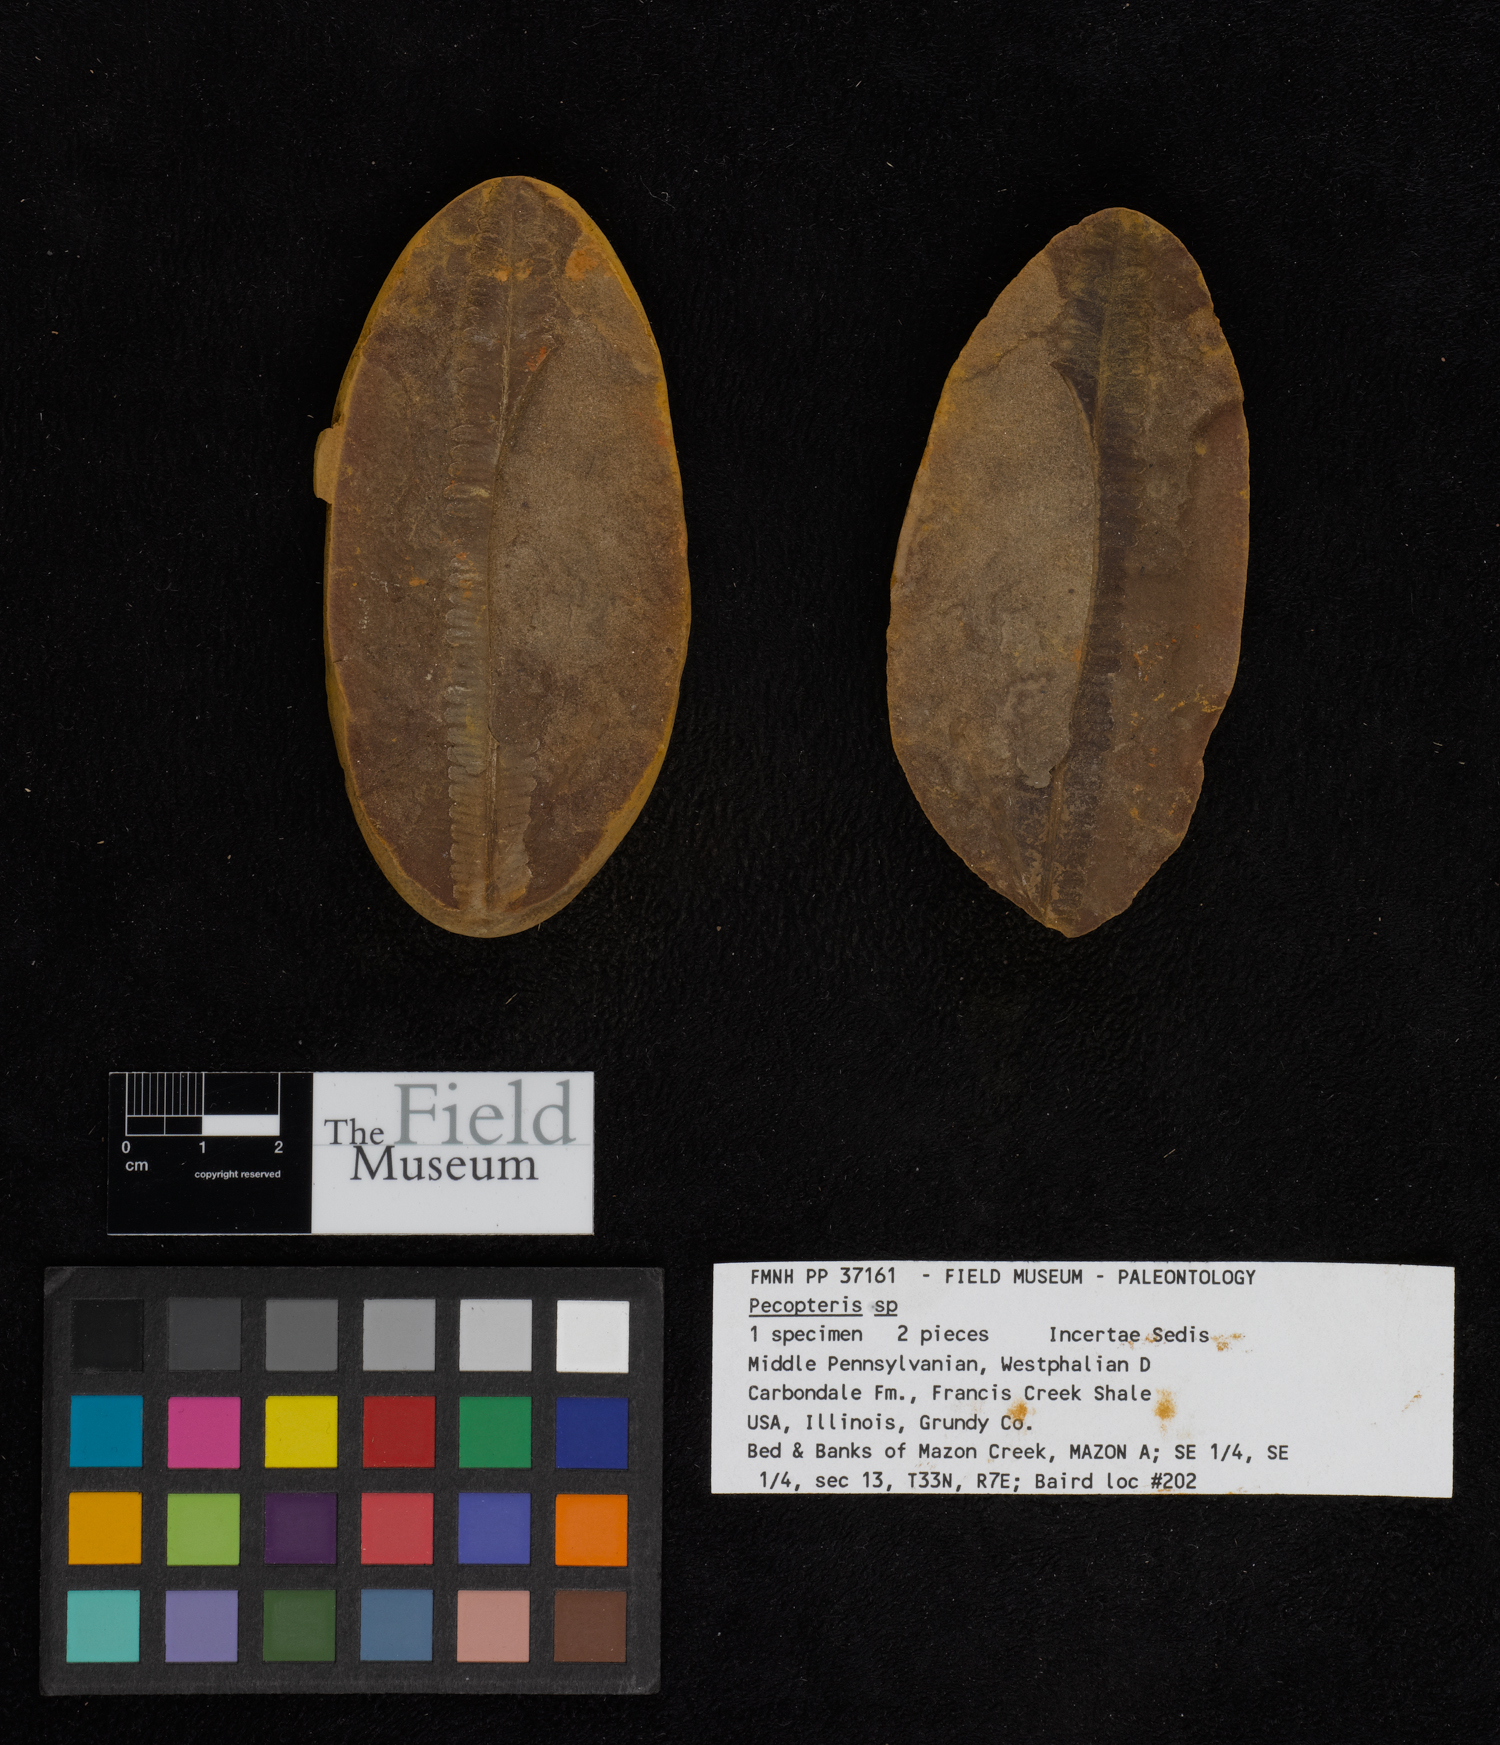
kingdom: Plantae
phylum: Tracheophyta
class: Polypodiopsida
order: Marattiales
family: Asterothecaceae
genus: Pecopteris
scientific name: Pecopteris
